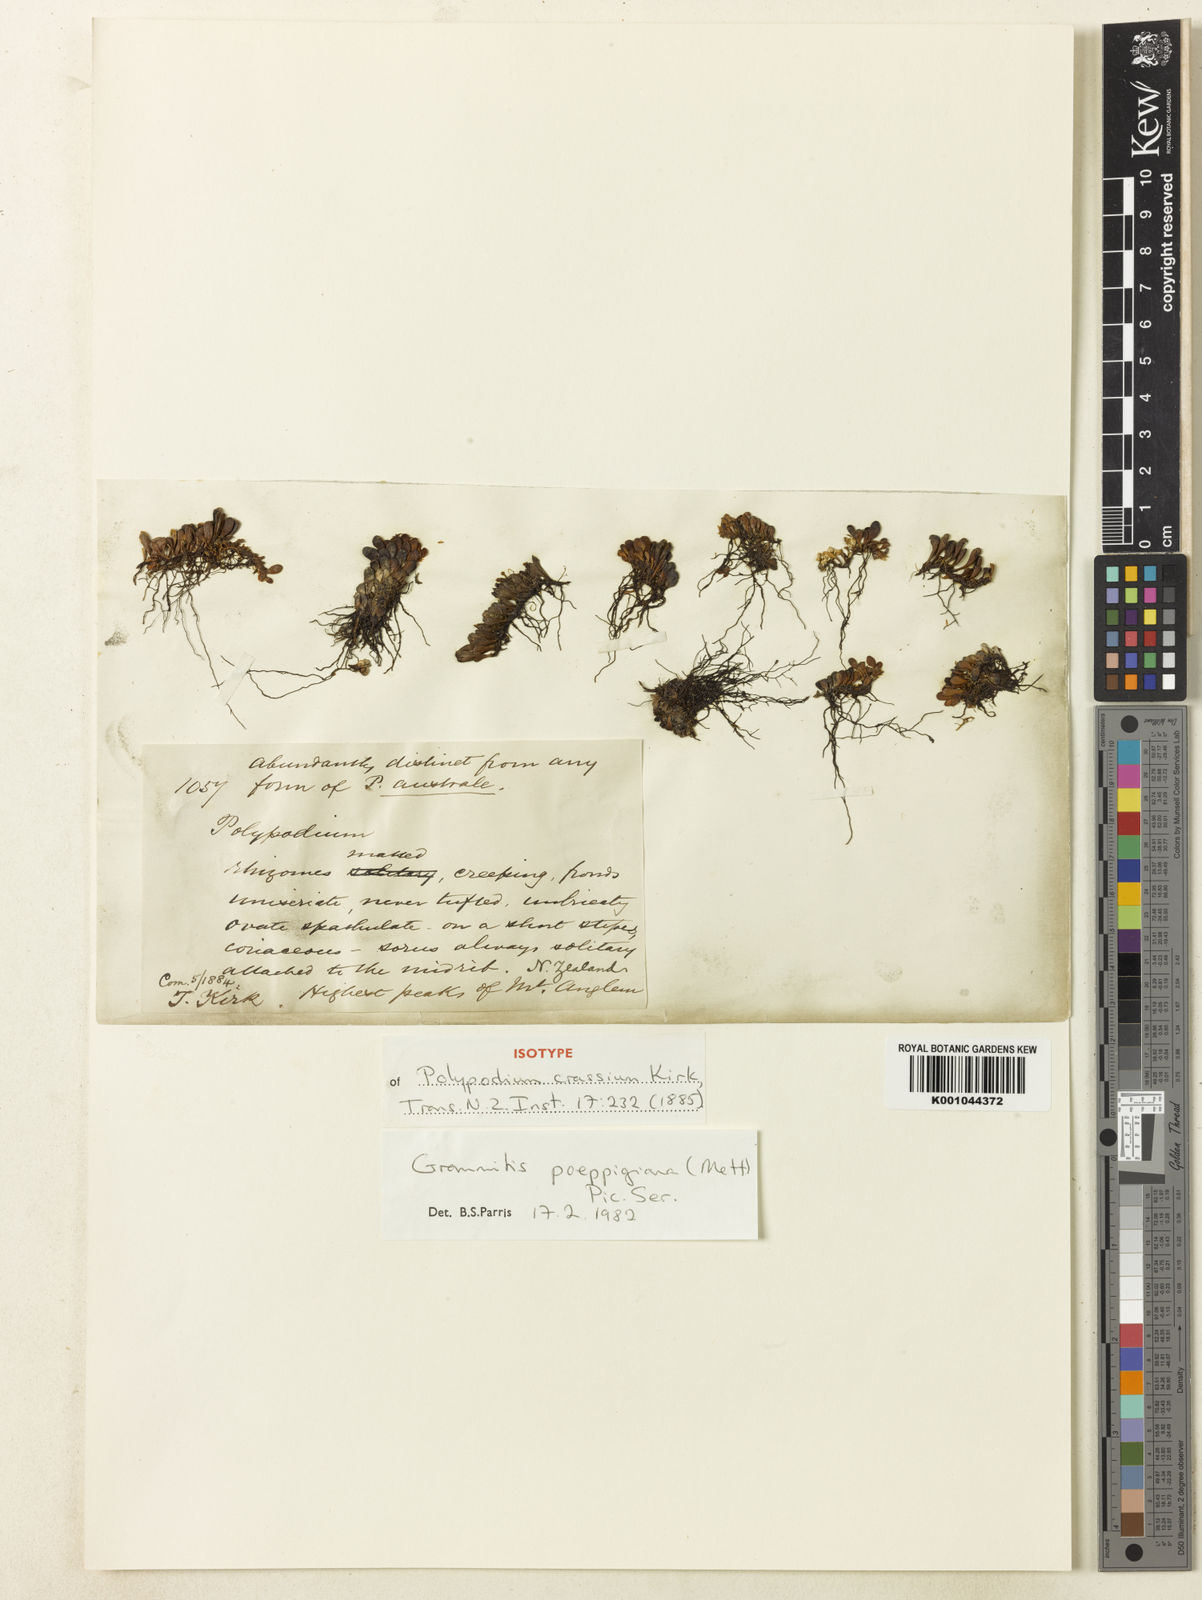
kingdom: Plantae
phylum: Tracheophyta
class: Polypodiopsida
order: Polypodiales
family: Polypodiaceae
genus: Notogrammitis
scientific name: Notogrammitis
